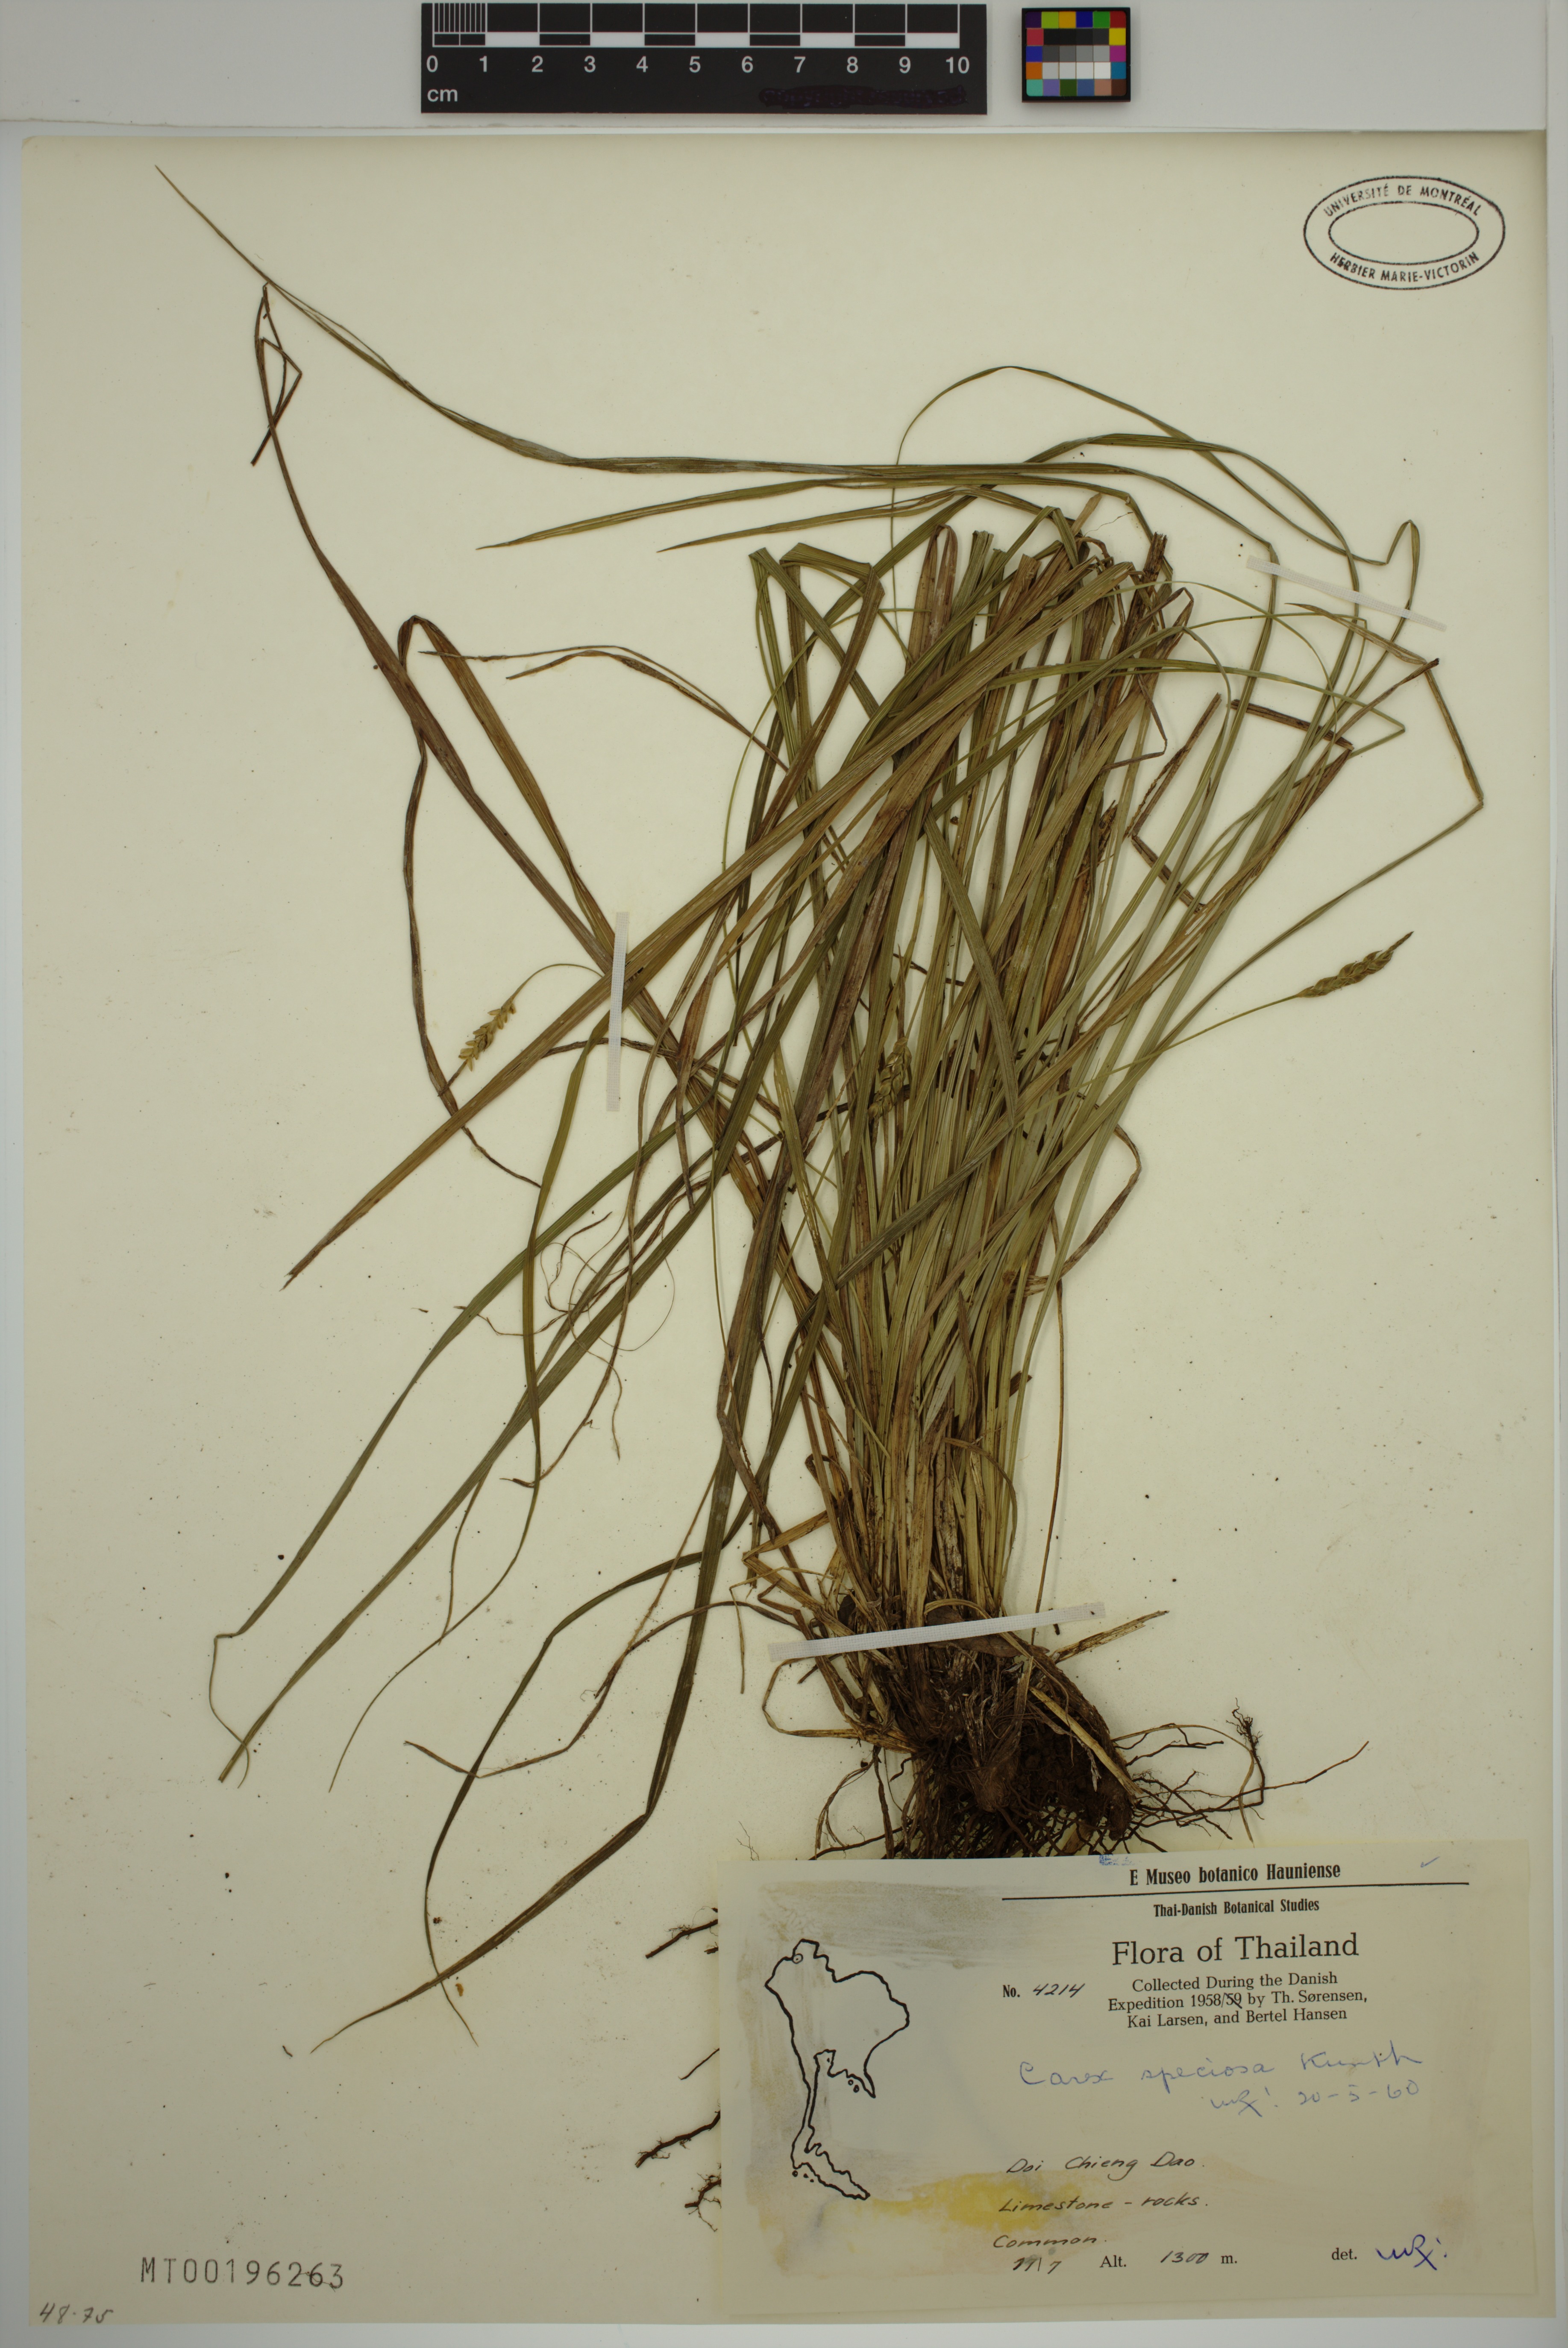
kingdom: Plantae
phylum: Tracheophyta
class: Liliopsida
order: Poales
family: Cyperaceae
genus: Carex
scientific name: Carex speciosa
